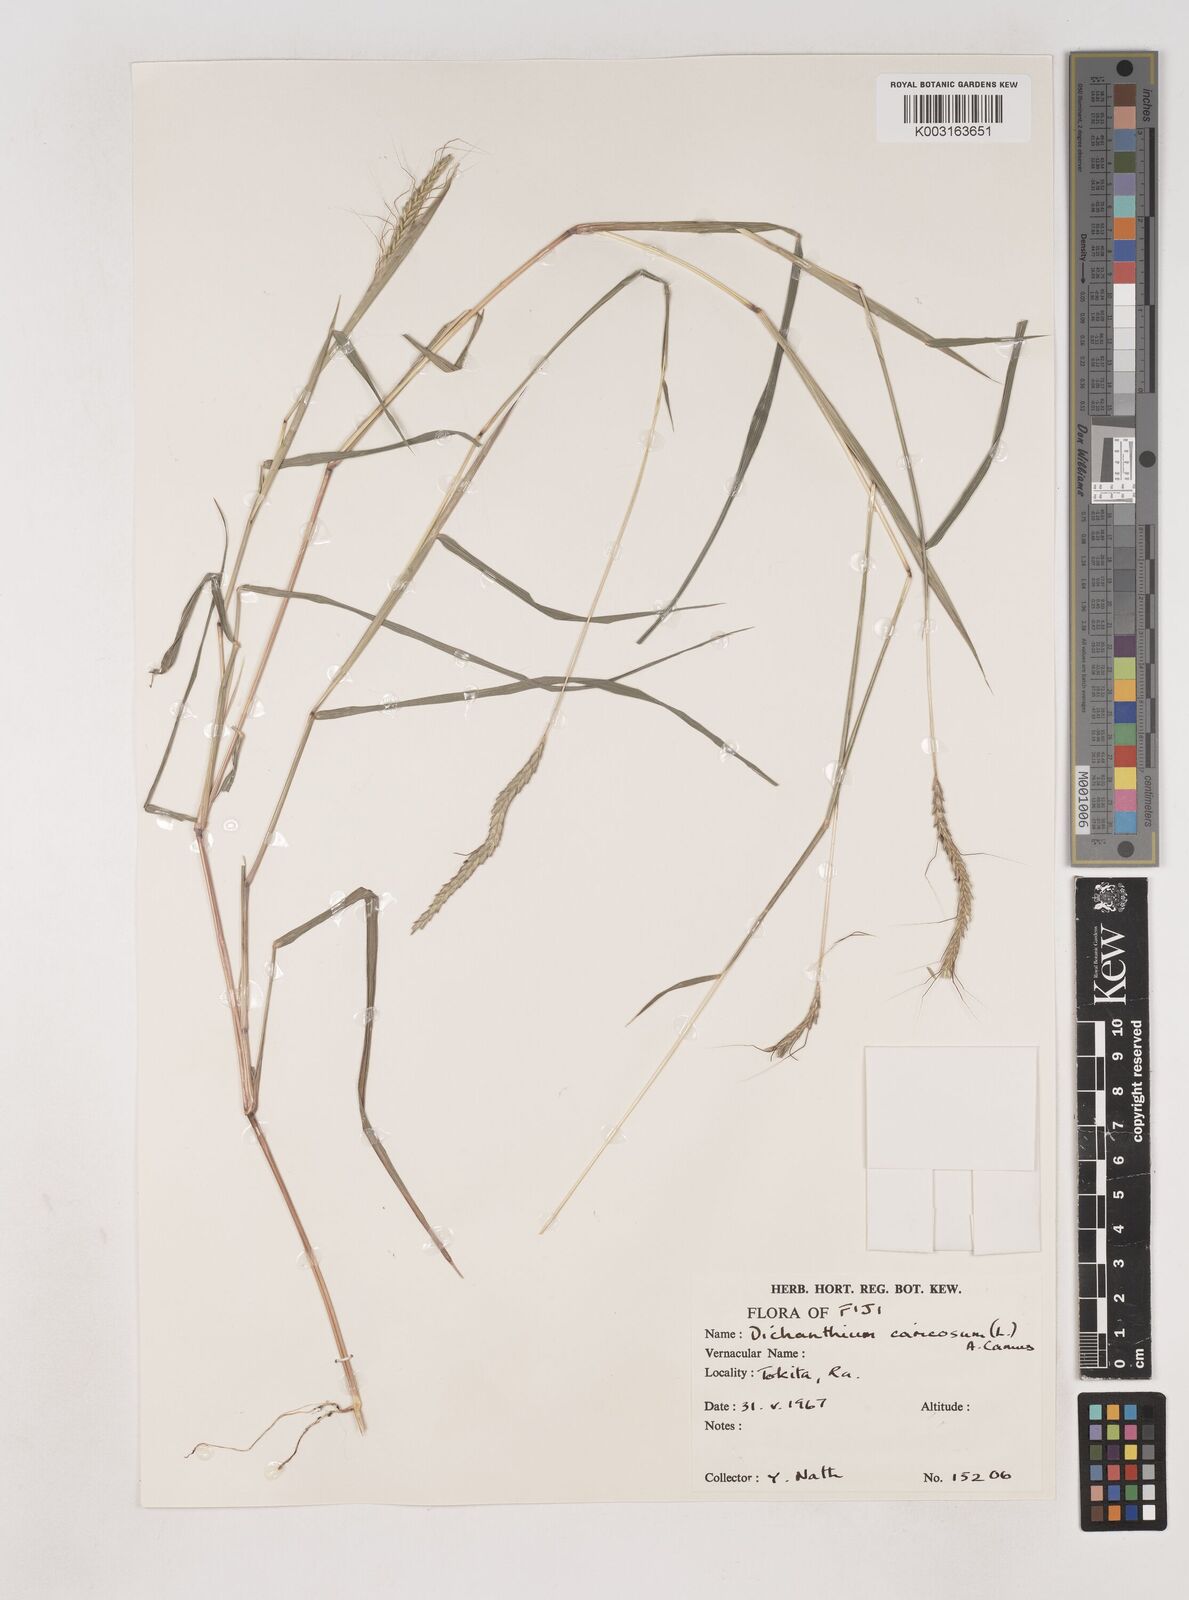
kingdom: Plantae
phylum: Tracheophyta
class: Liliopsida
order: Poales
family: Poaceae
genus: Dichanthium
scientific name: Dichanthium caricosum
